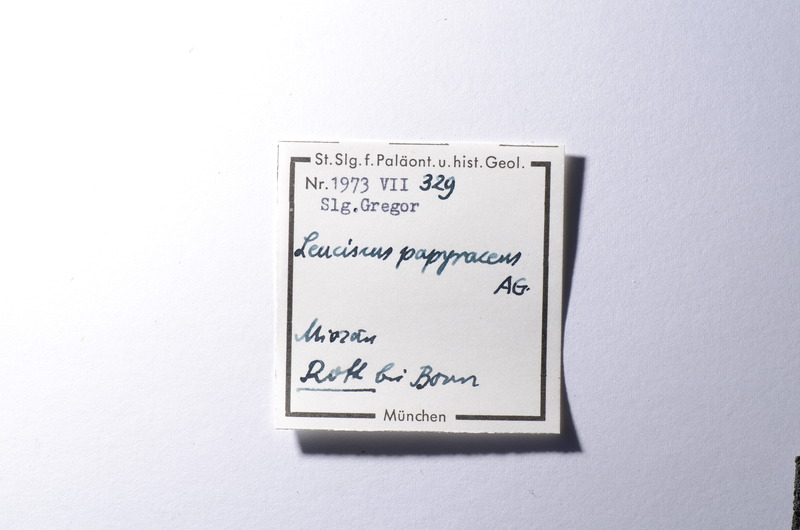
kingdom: Animalia
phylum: Chordata
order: Cypriniformes
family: Cyprinidae
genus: Palaeorutilus
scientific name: Palaeorutilus Cyprinus papyraceus
